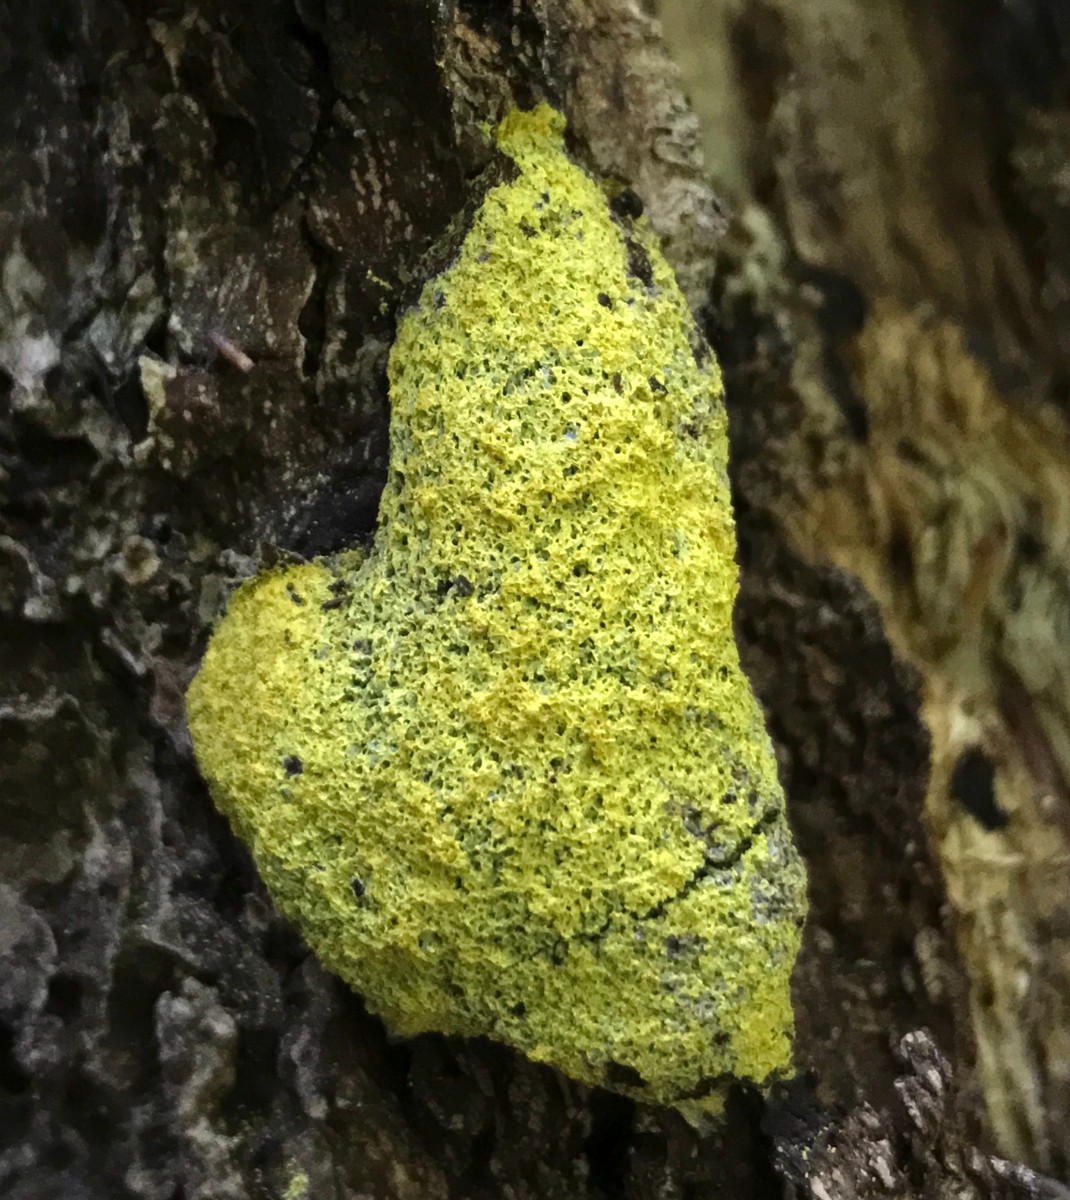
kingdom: Protozoa
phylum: Mycetozoa
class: Myxomycetes
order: Physarales
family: Physaraceae
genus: Fuligo
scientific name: Fuligo septica
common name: gul troldsmør
